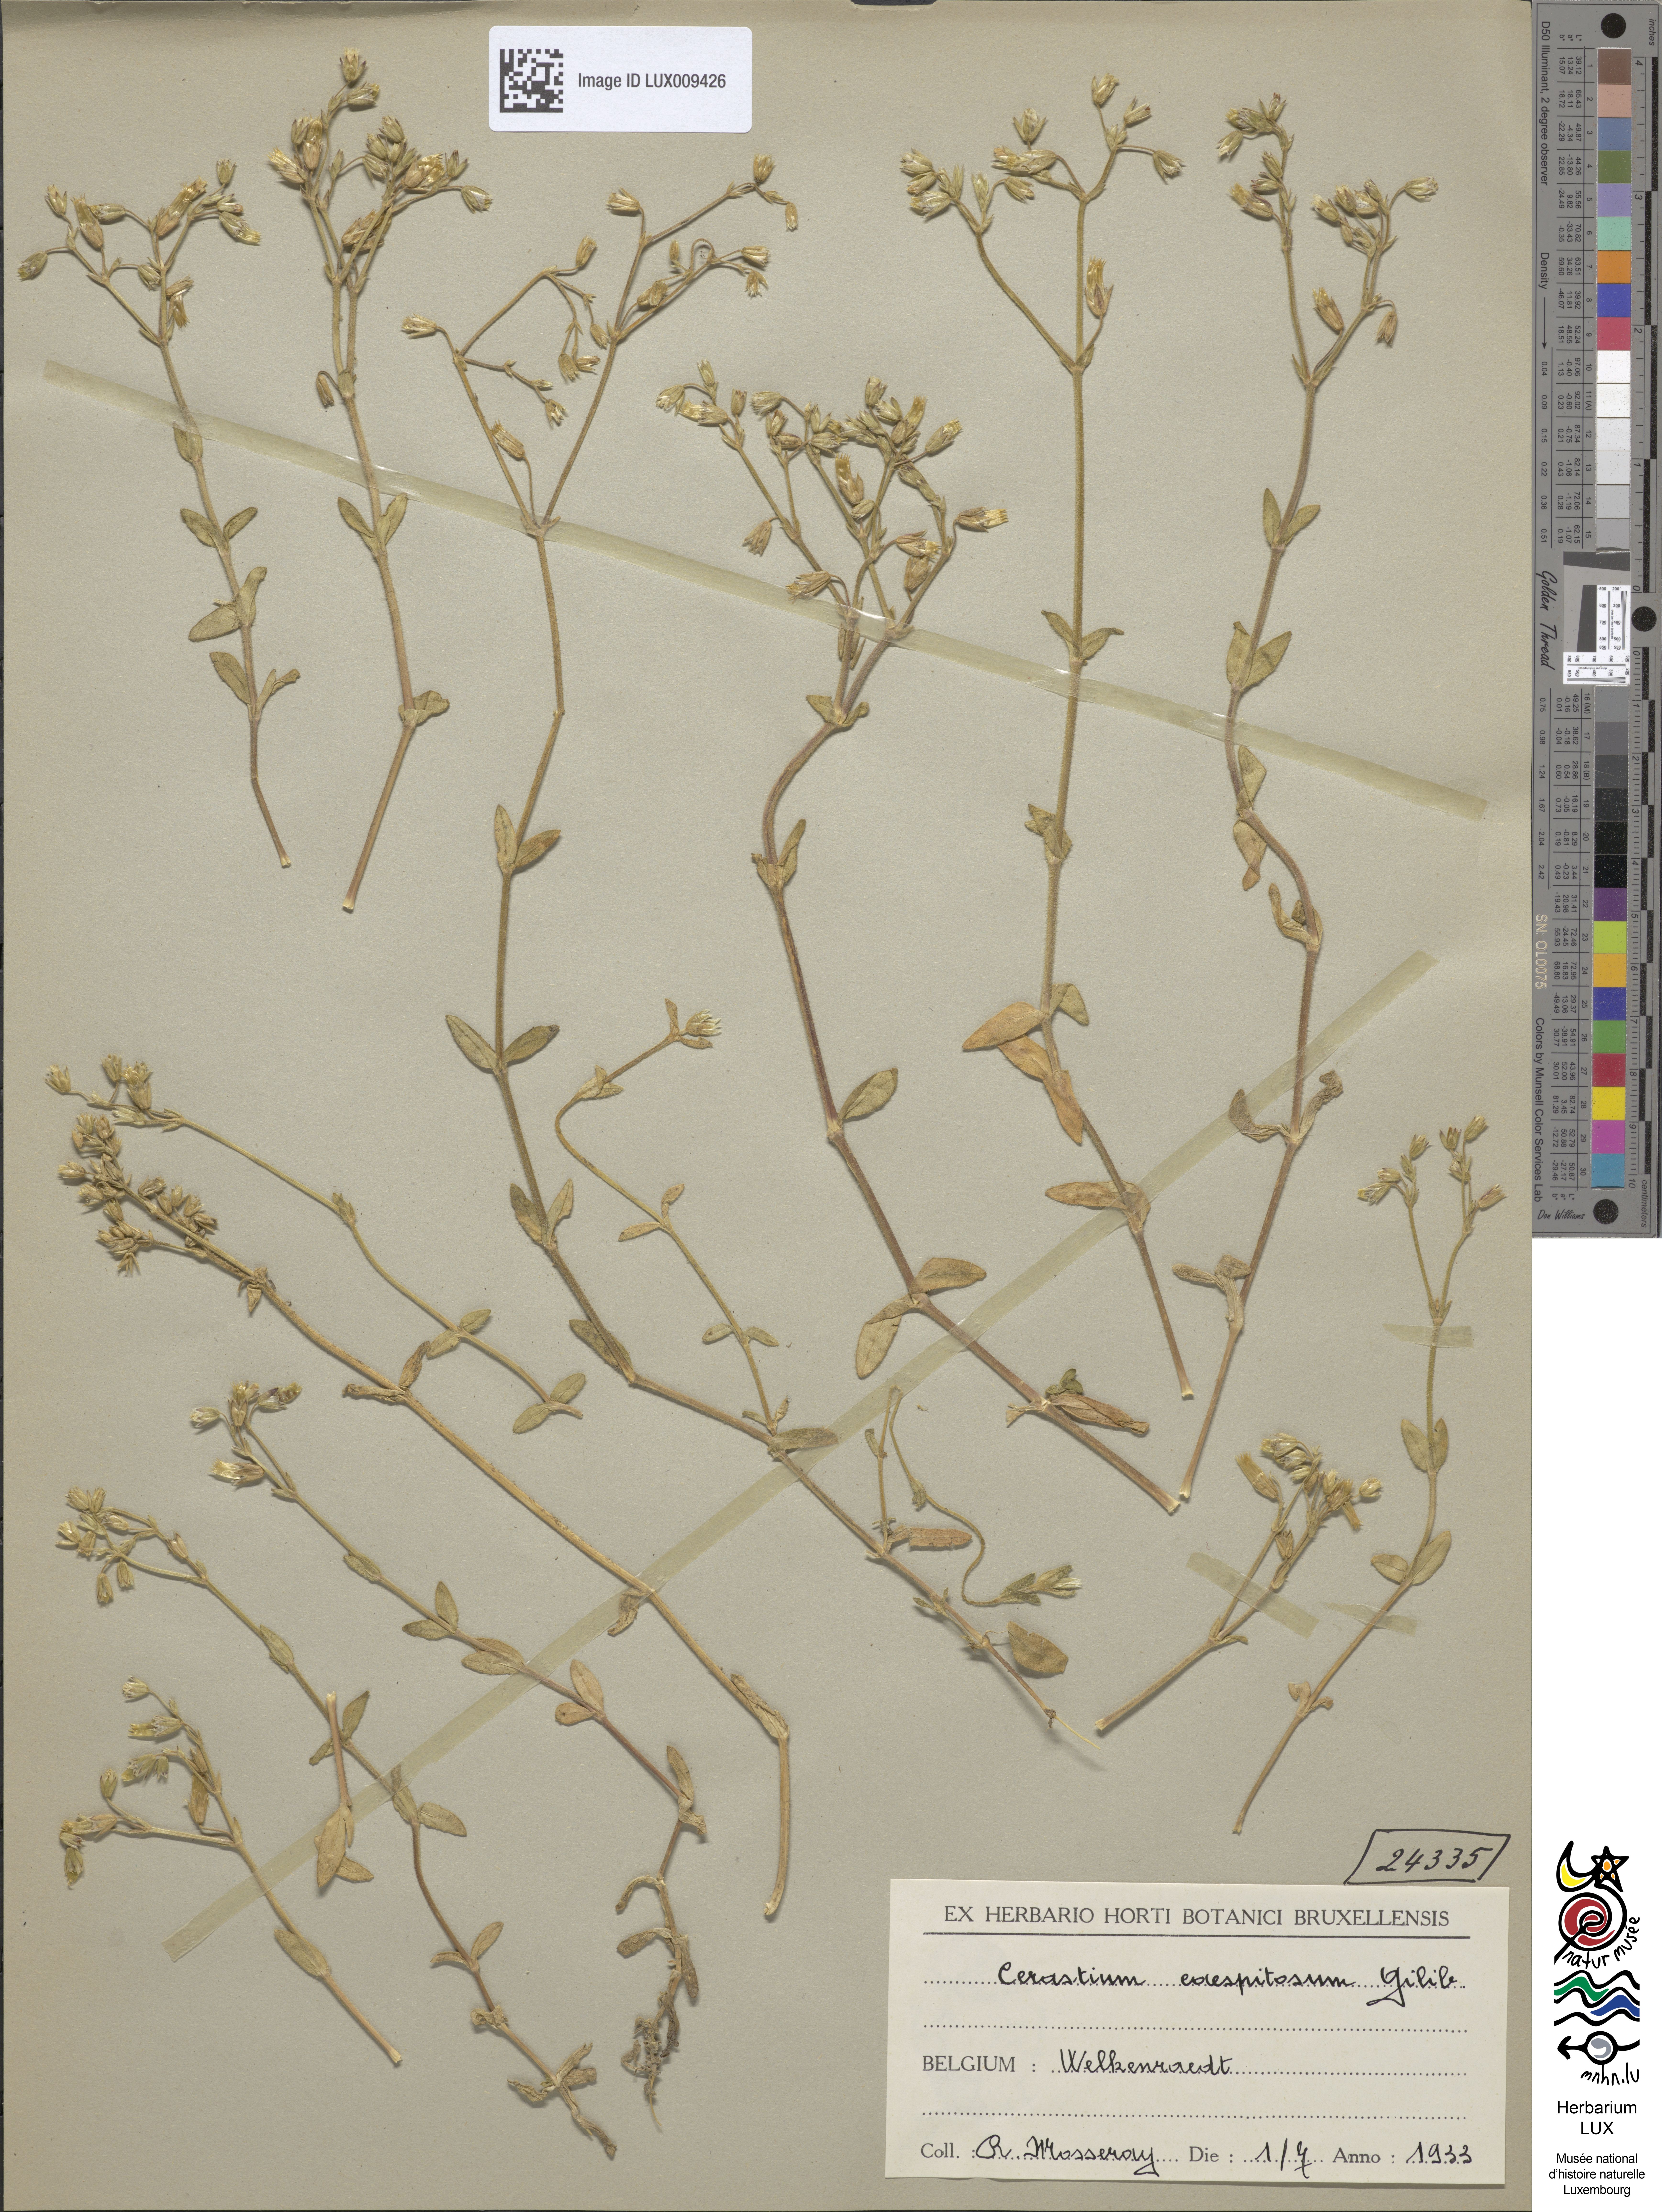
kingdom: Plantae
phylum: Tracheophyta
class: Magnoliopsida
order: Caryophyllales
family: Caryophyllaceae
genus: Cerastium
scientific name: Cerastium
